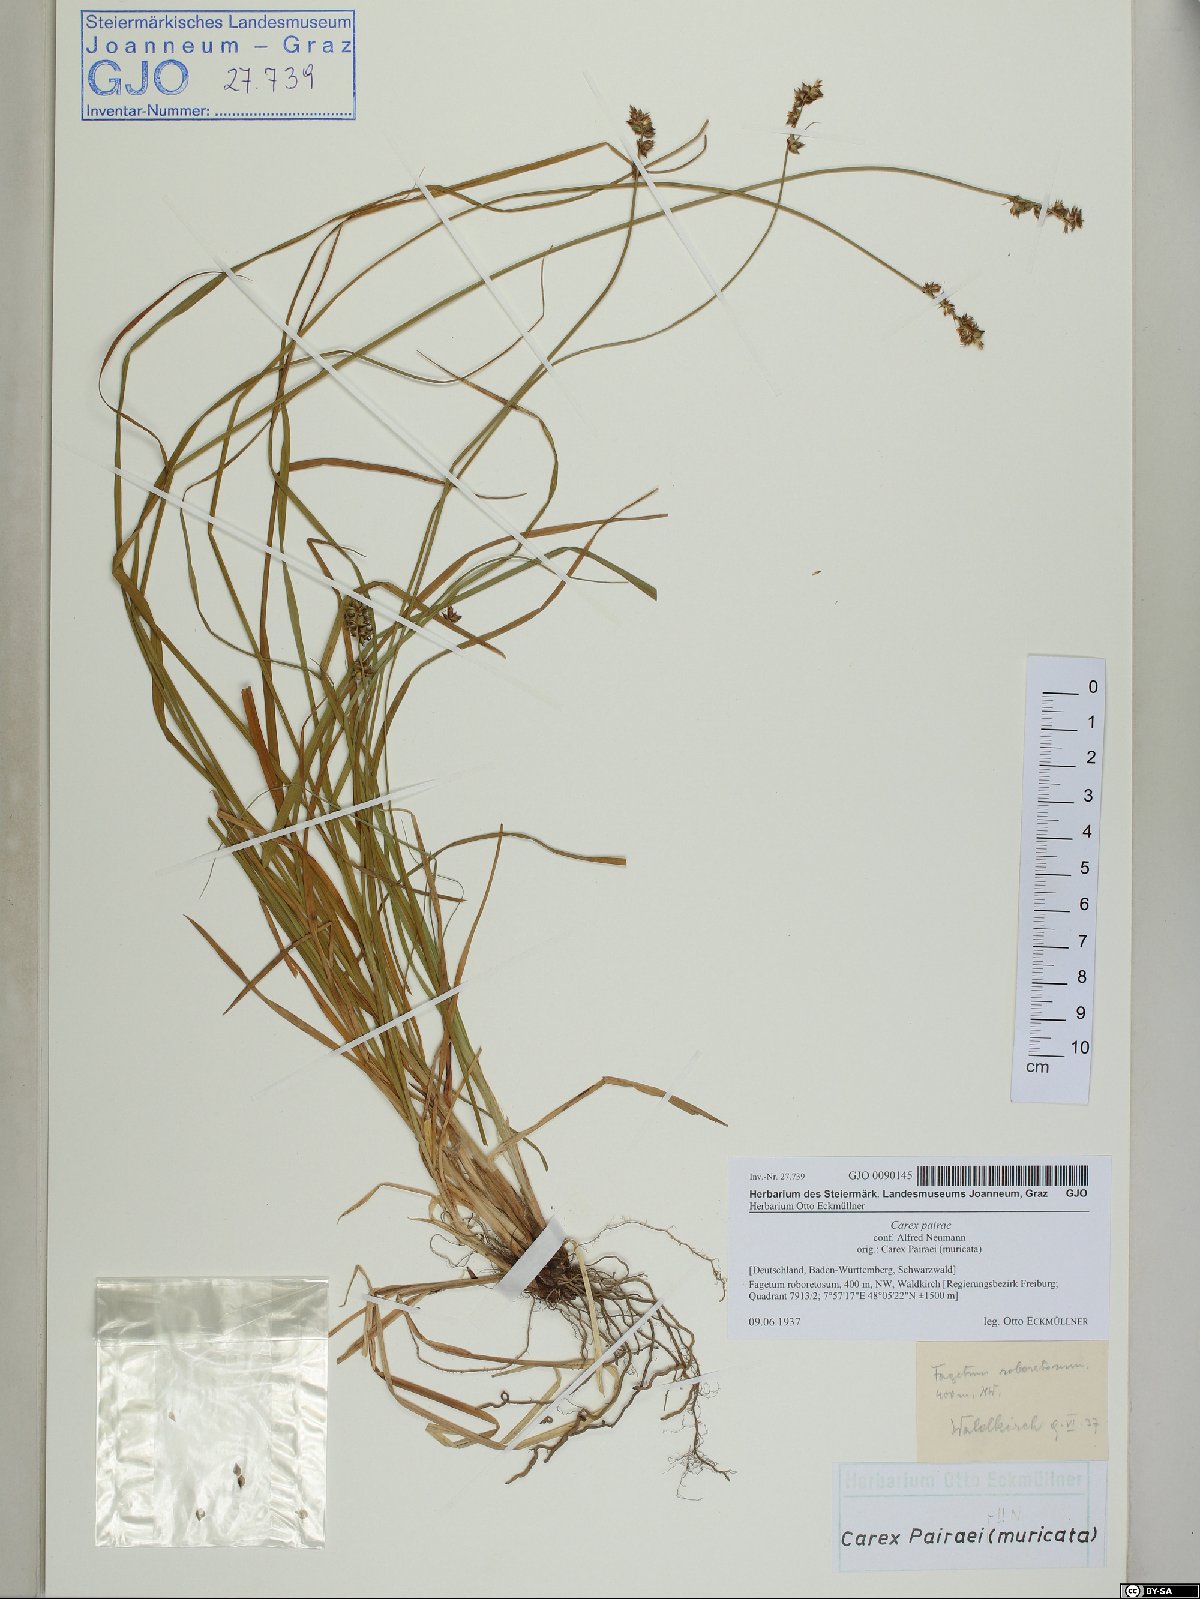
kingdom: Plantae
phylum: Tracheophyta
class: Liliopsida
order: Poales
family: Cyperaceae
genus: Carex
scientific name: Carex pairae
